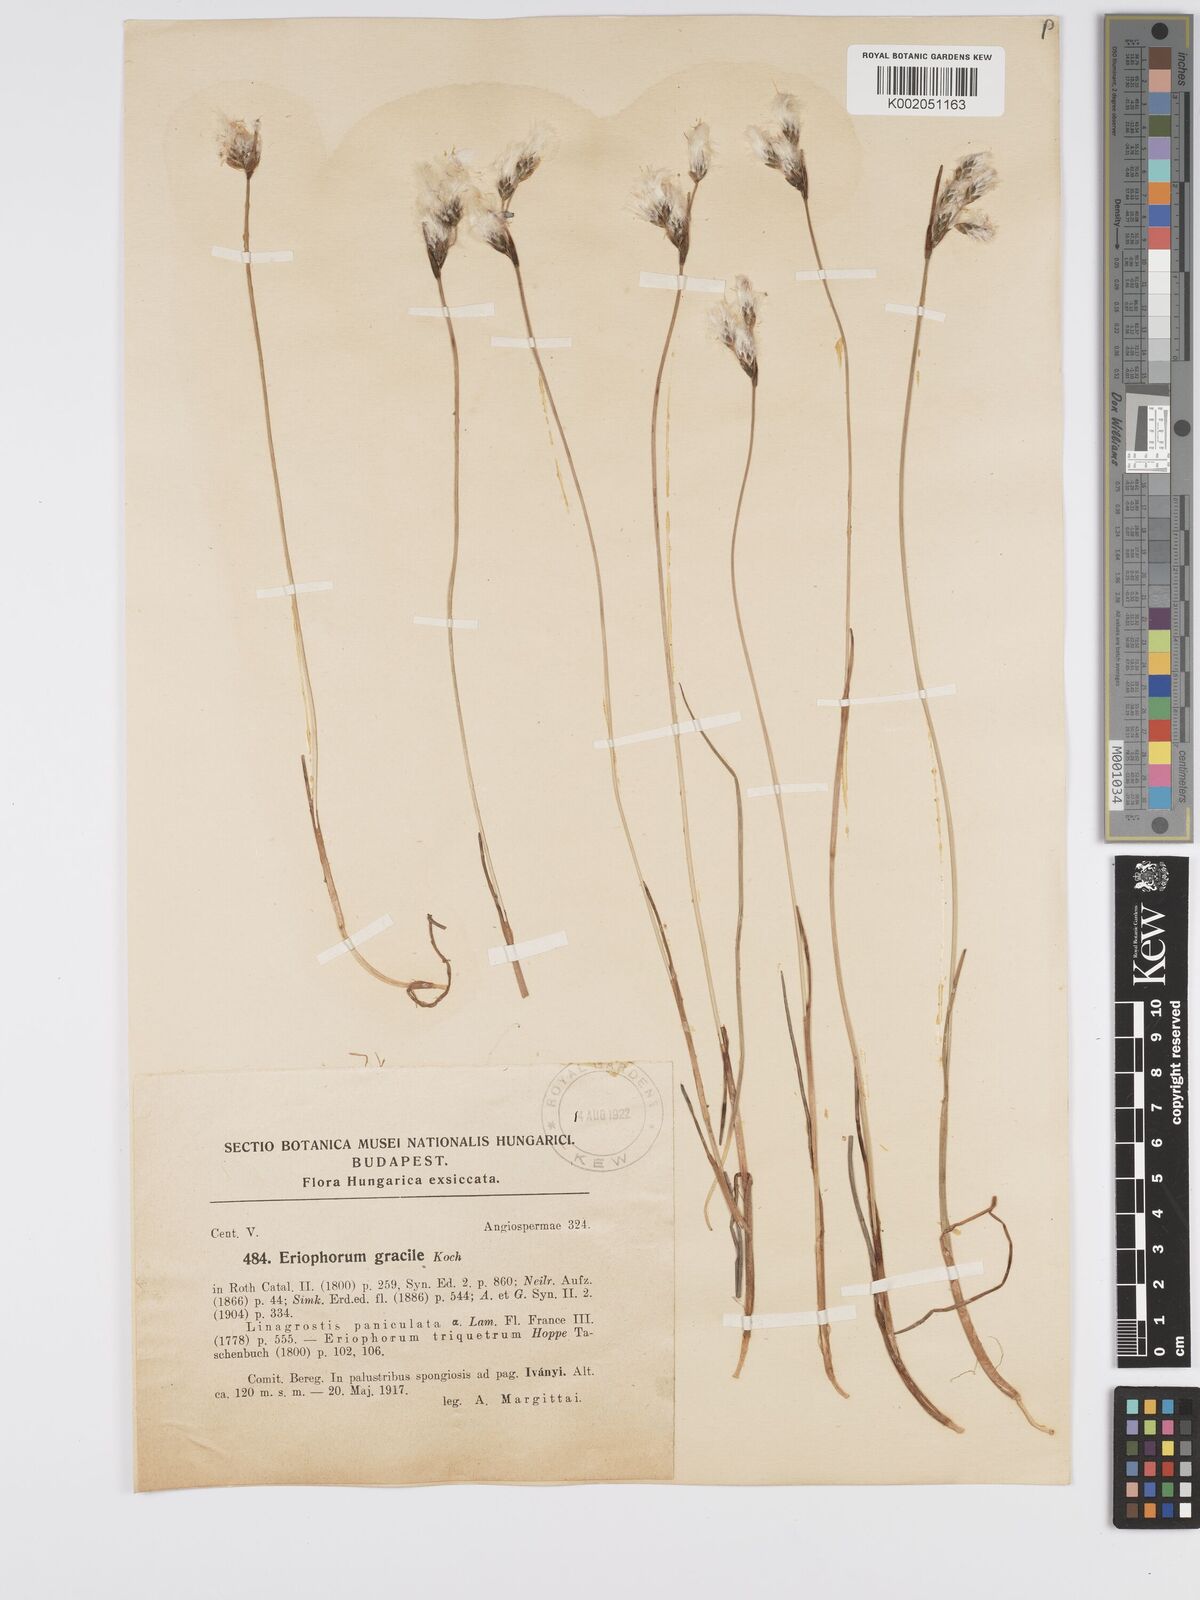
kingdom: Plantae
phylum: Tracheophyta
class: Liliopsida
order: Poales
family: Cyperaceae
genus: Eriophorum
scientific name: Eriophorum gracile
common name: Slender cottongrass
